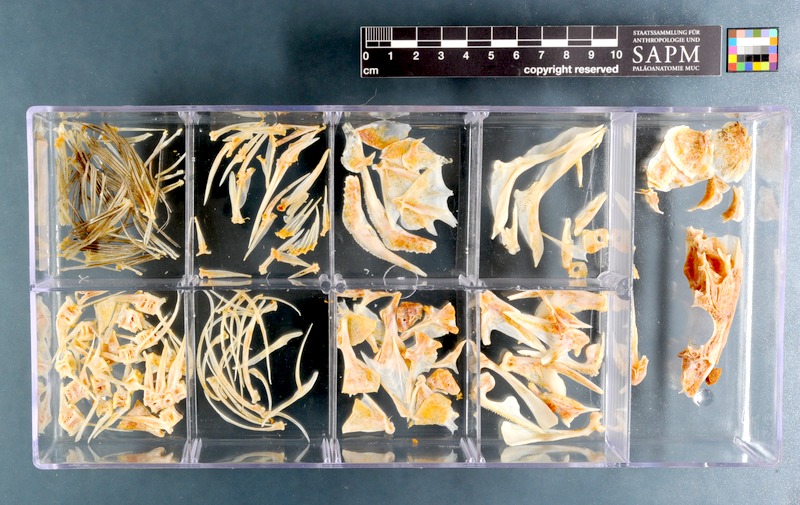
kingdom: Animalia
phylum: Chordata
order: Perciformes
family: Serranidae
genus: Aulacocephalus
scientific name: Aulacocephalus temminckii
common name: Goldribbon soapfish
